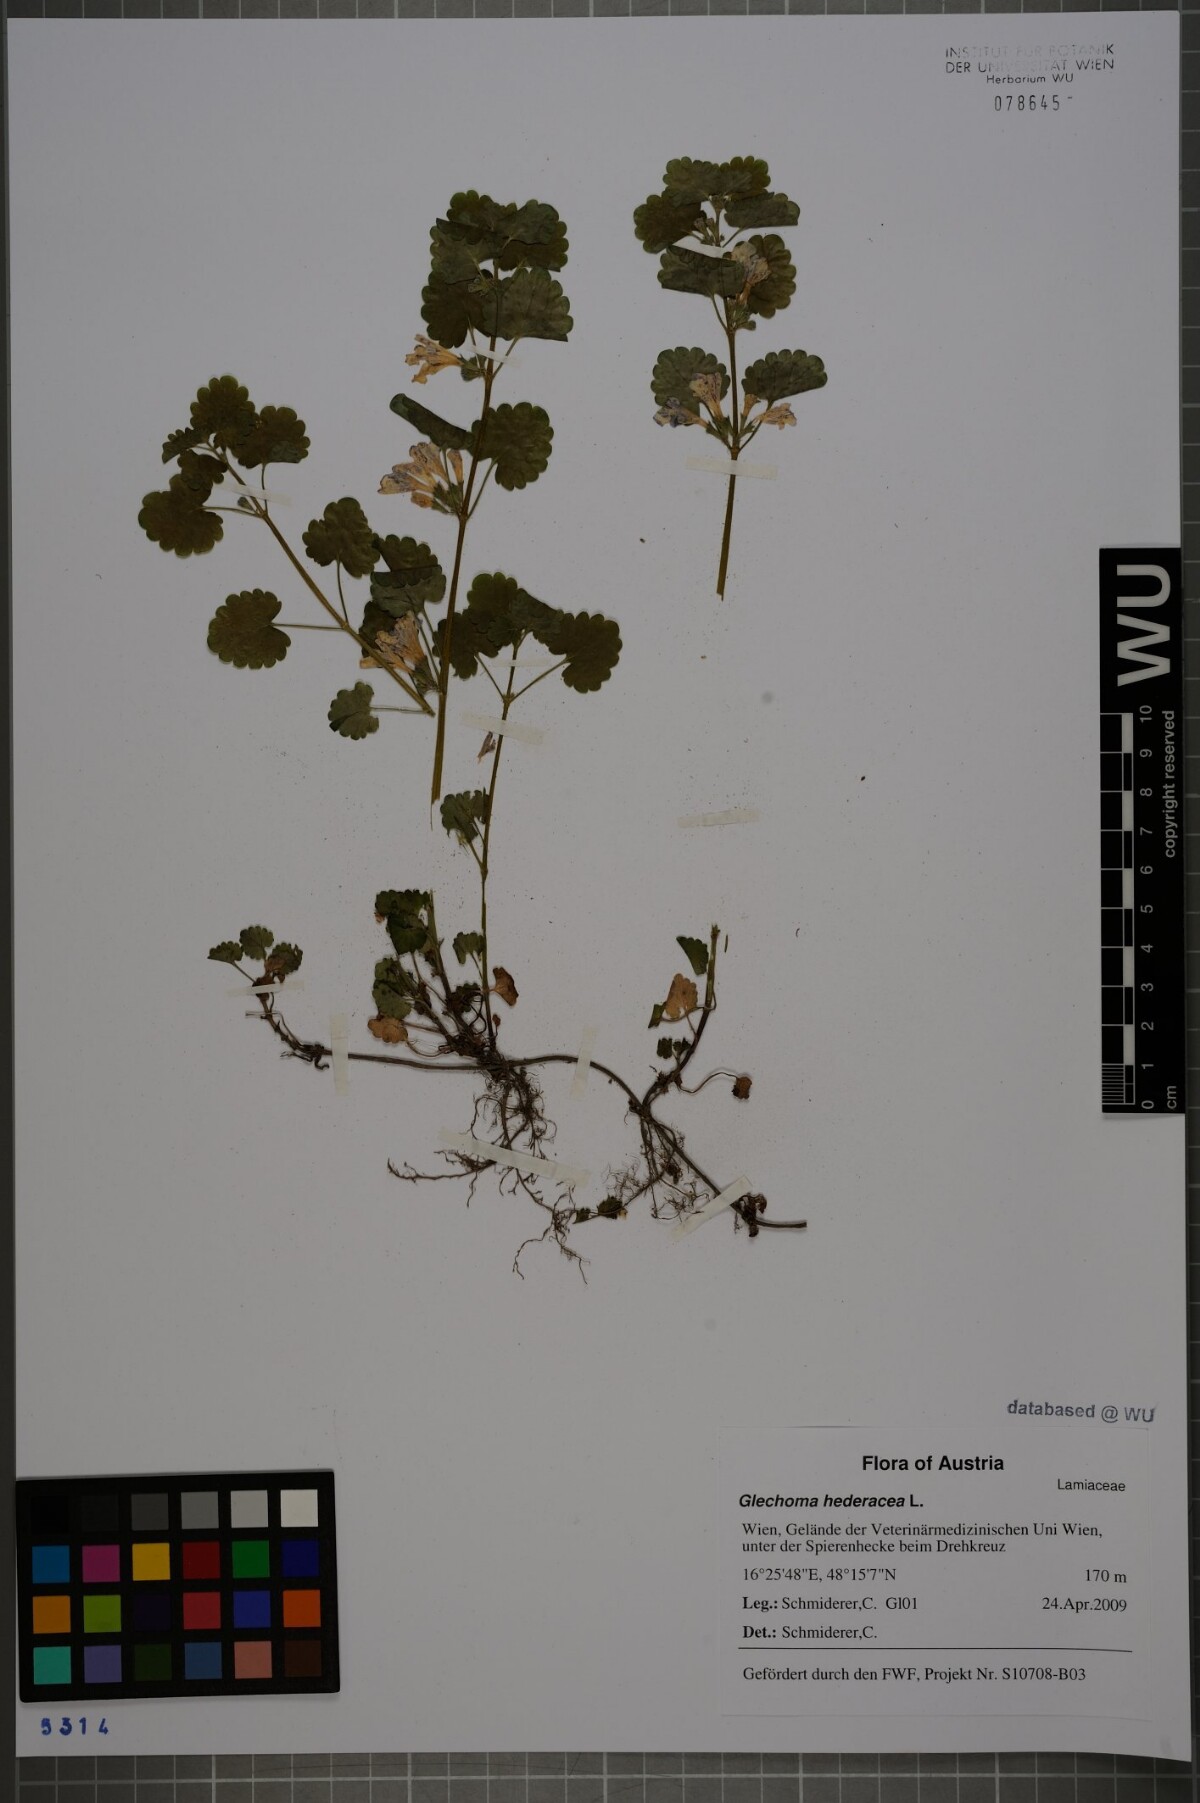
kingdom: Plantae
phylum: Tracheophyta
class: Magnoliopsida
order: Lamiales
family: Lamiaceae
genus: Glechoma
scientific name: Glechoma hederacea
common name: Ground ivy
